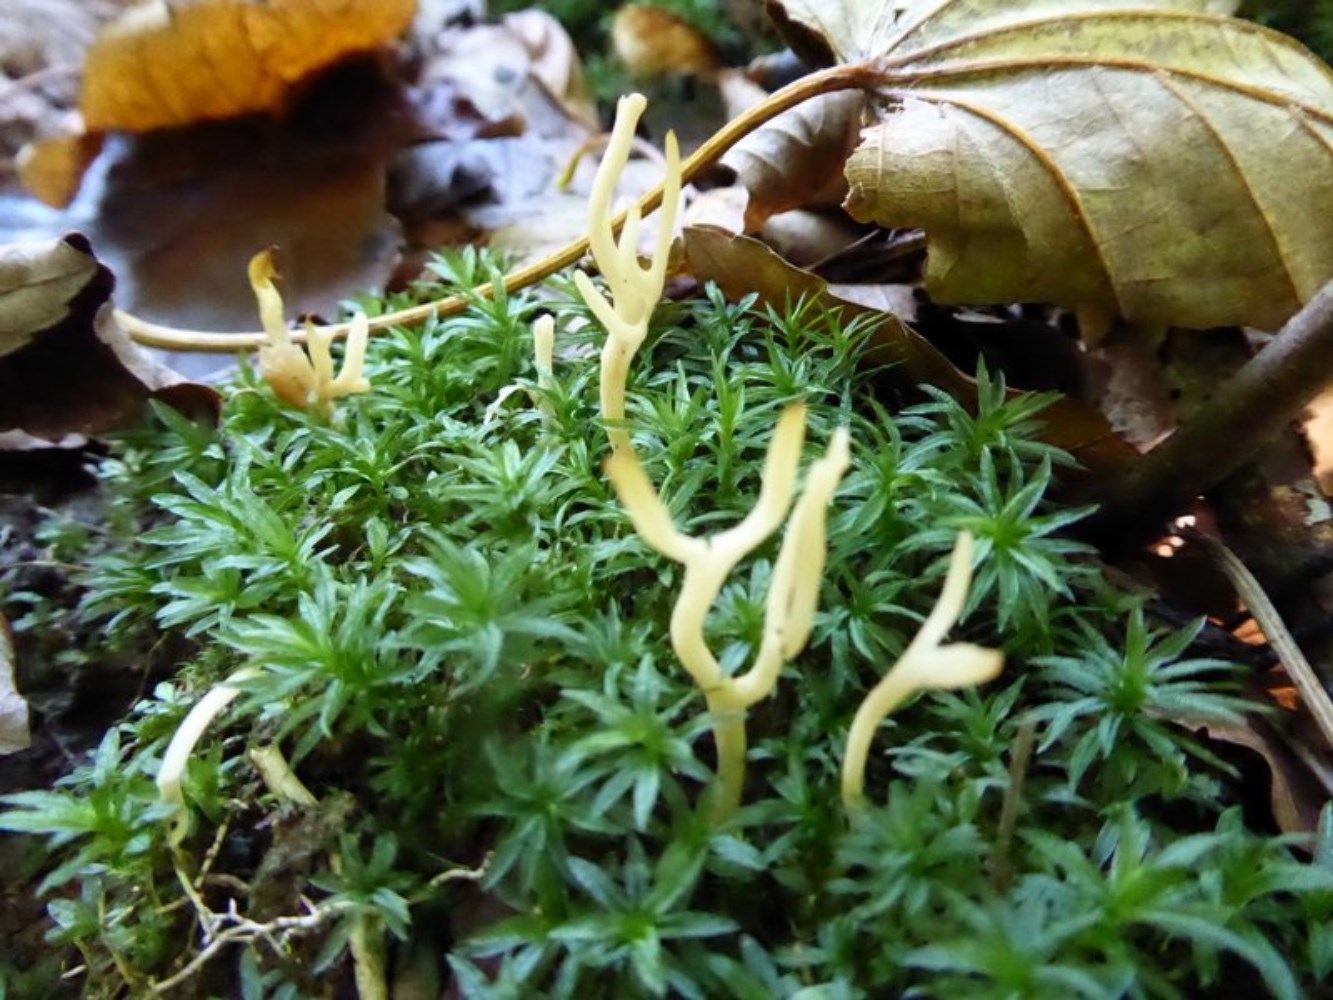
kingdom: Fungi
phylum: Basidiomycota
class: Agaricomycetes
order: Agaricales
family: Clavariaceae
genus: Ramariopsis
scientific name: Ramariopsis
